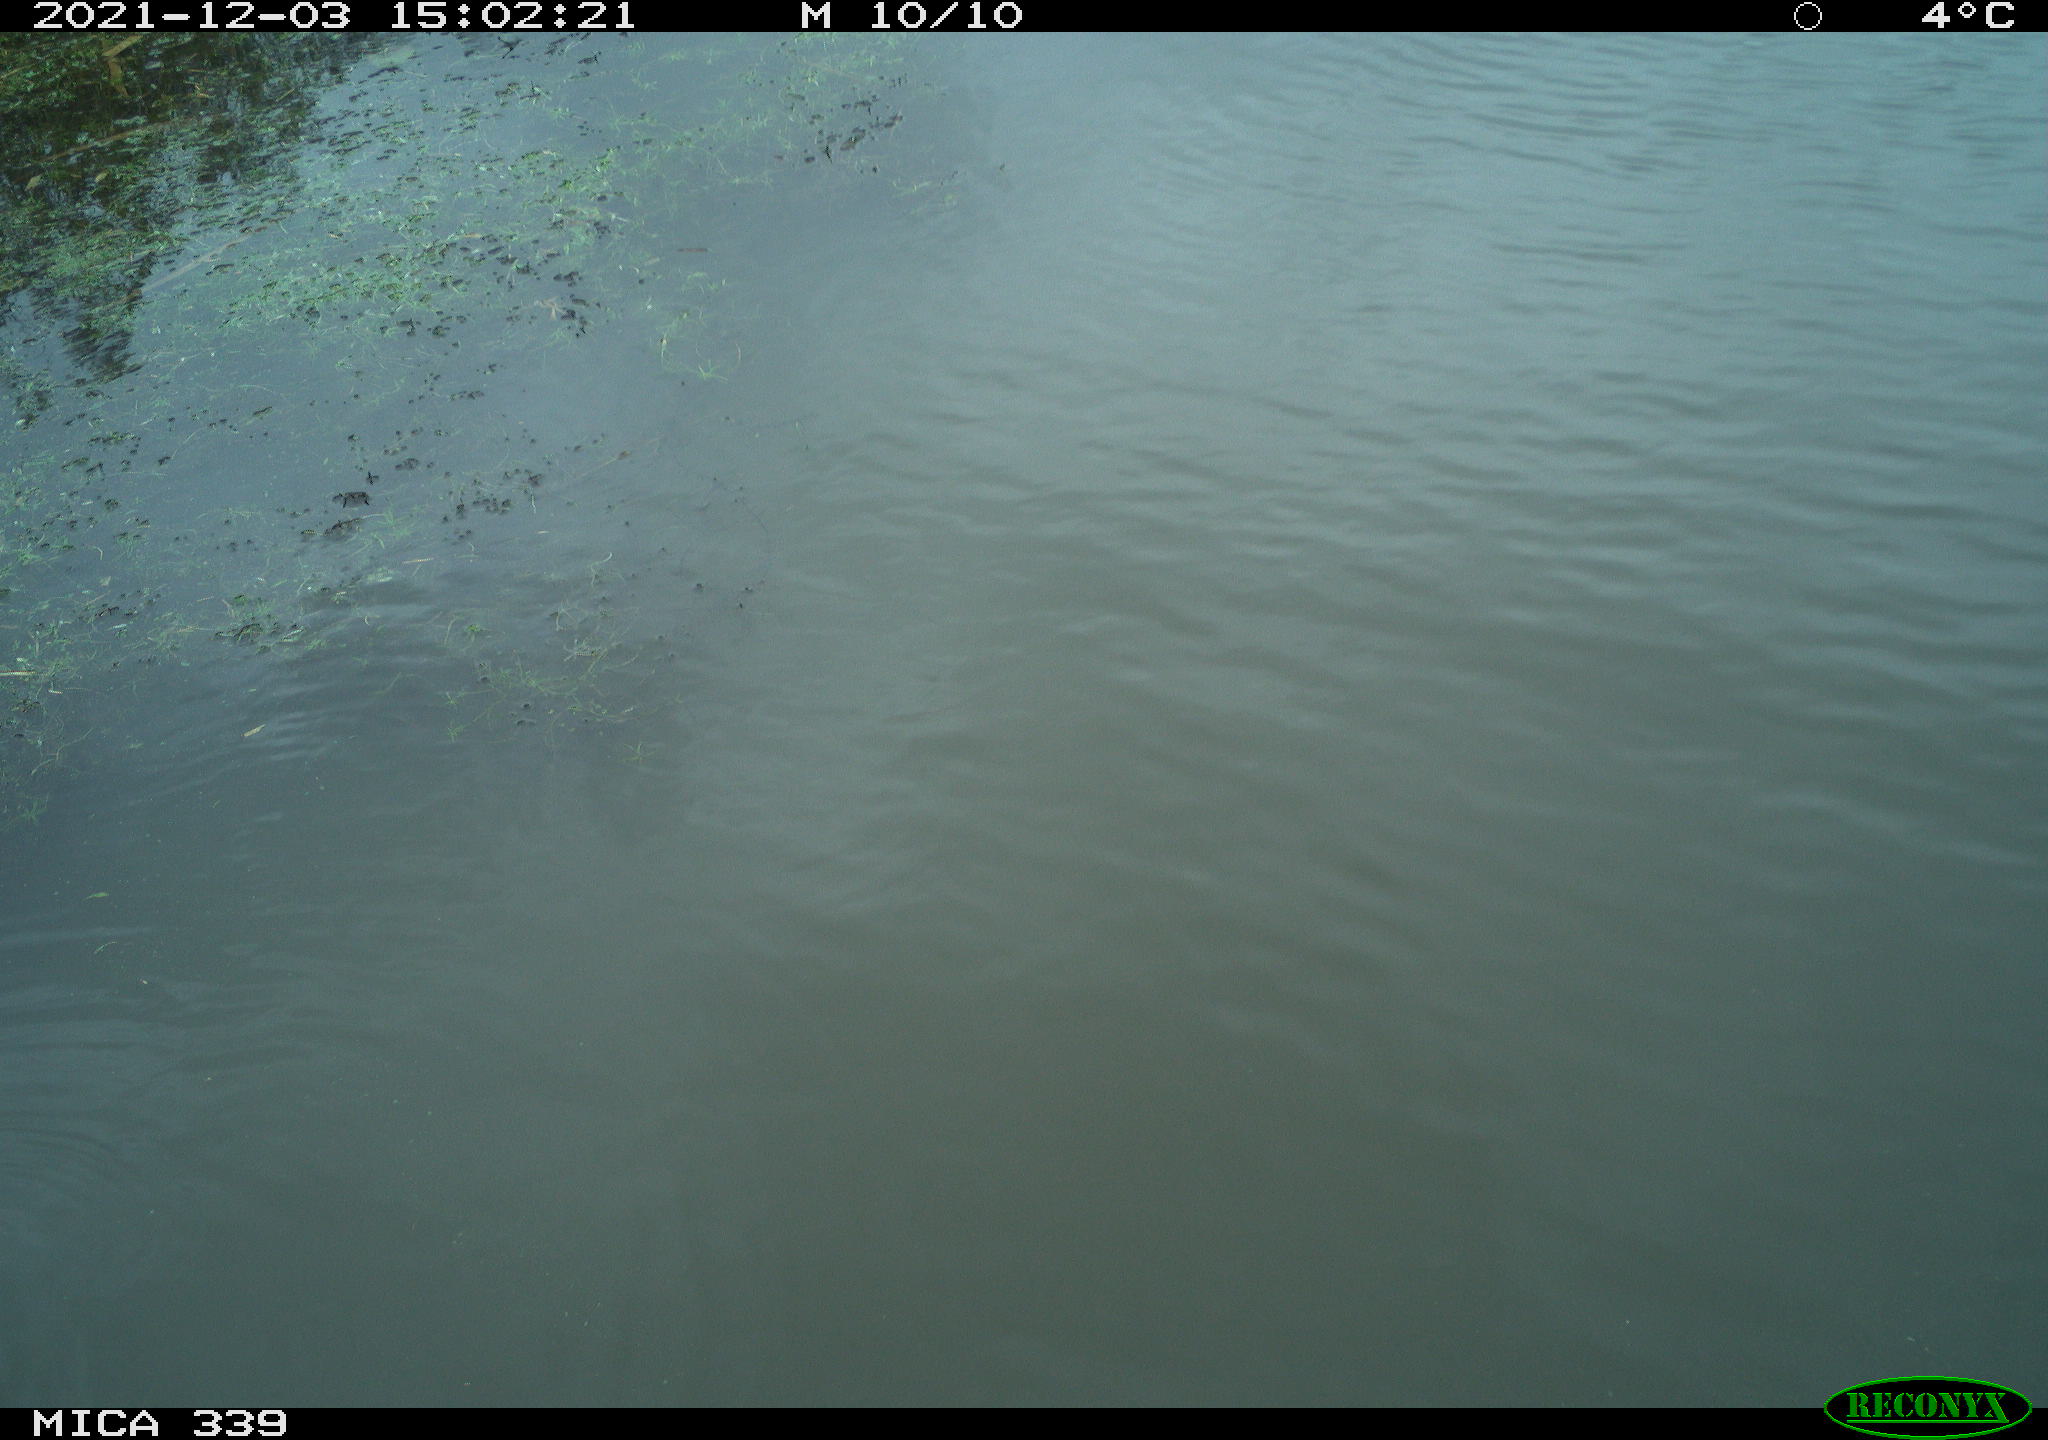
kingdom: Animalia
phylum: Chordata
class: Aves
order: Gruiformes
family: Rallidae
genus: Gallinula
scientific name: Gallinula chloropus
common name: Common moorhen
